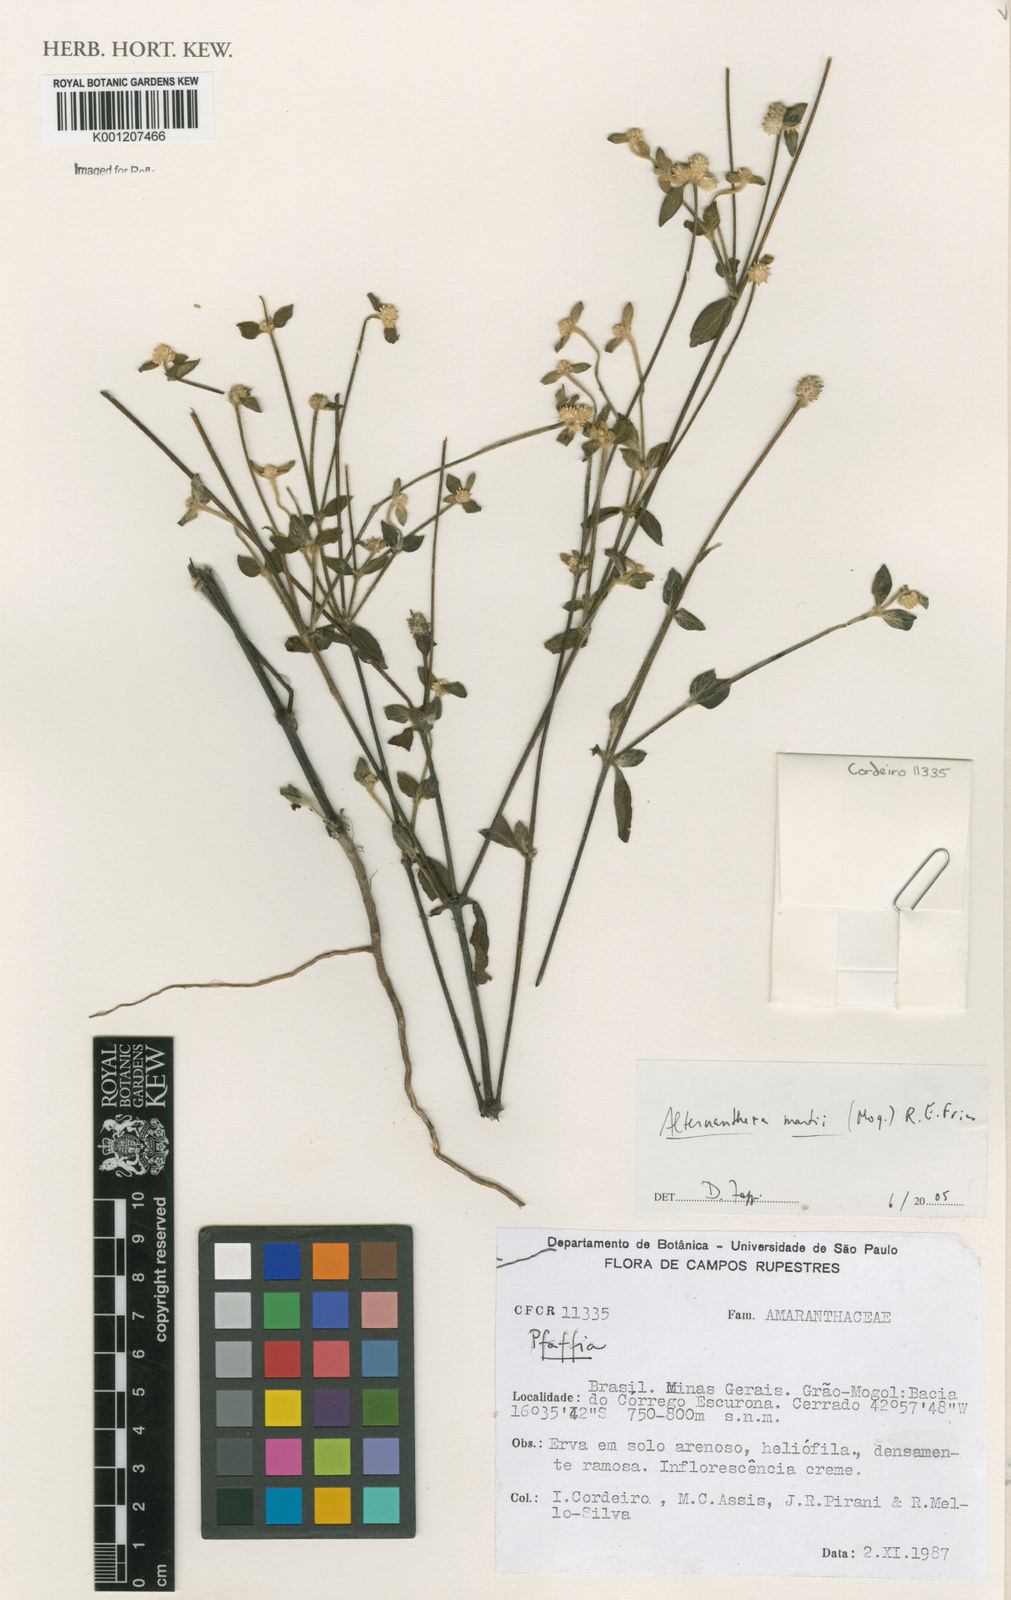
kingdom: Plantae
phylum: Tracheophyta
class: Magnoliopsida
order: Caryophyllales
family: Amaranthaceae
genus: Alternanthera
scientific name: Alternanthera martii
